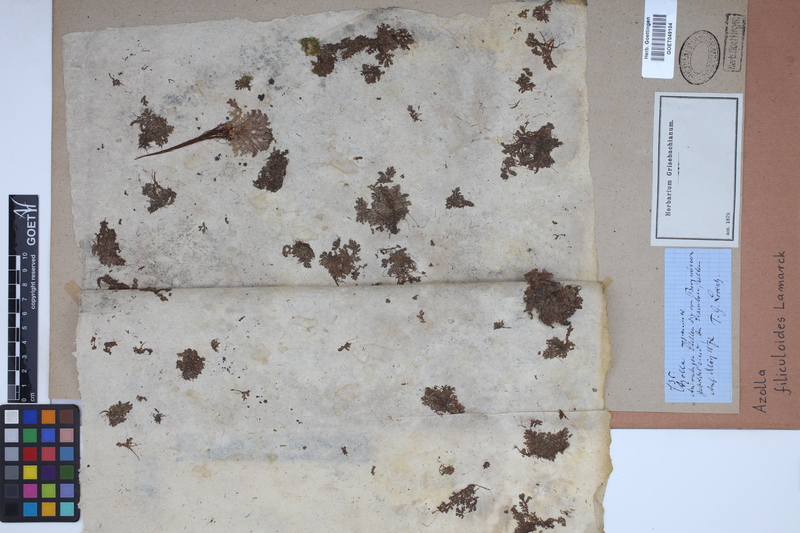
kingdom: Plantae
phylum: Tracheophyta
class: Polypodiopsida
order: Salviniales
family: Salviniaceae
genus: Azolla
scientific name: Azolla filiculoides
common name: Water fern
